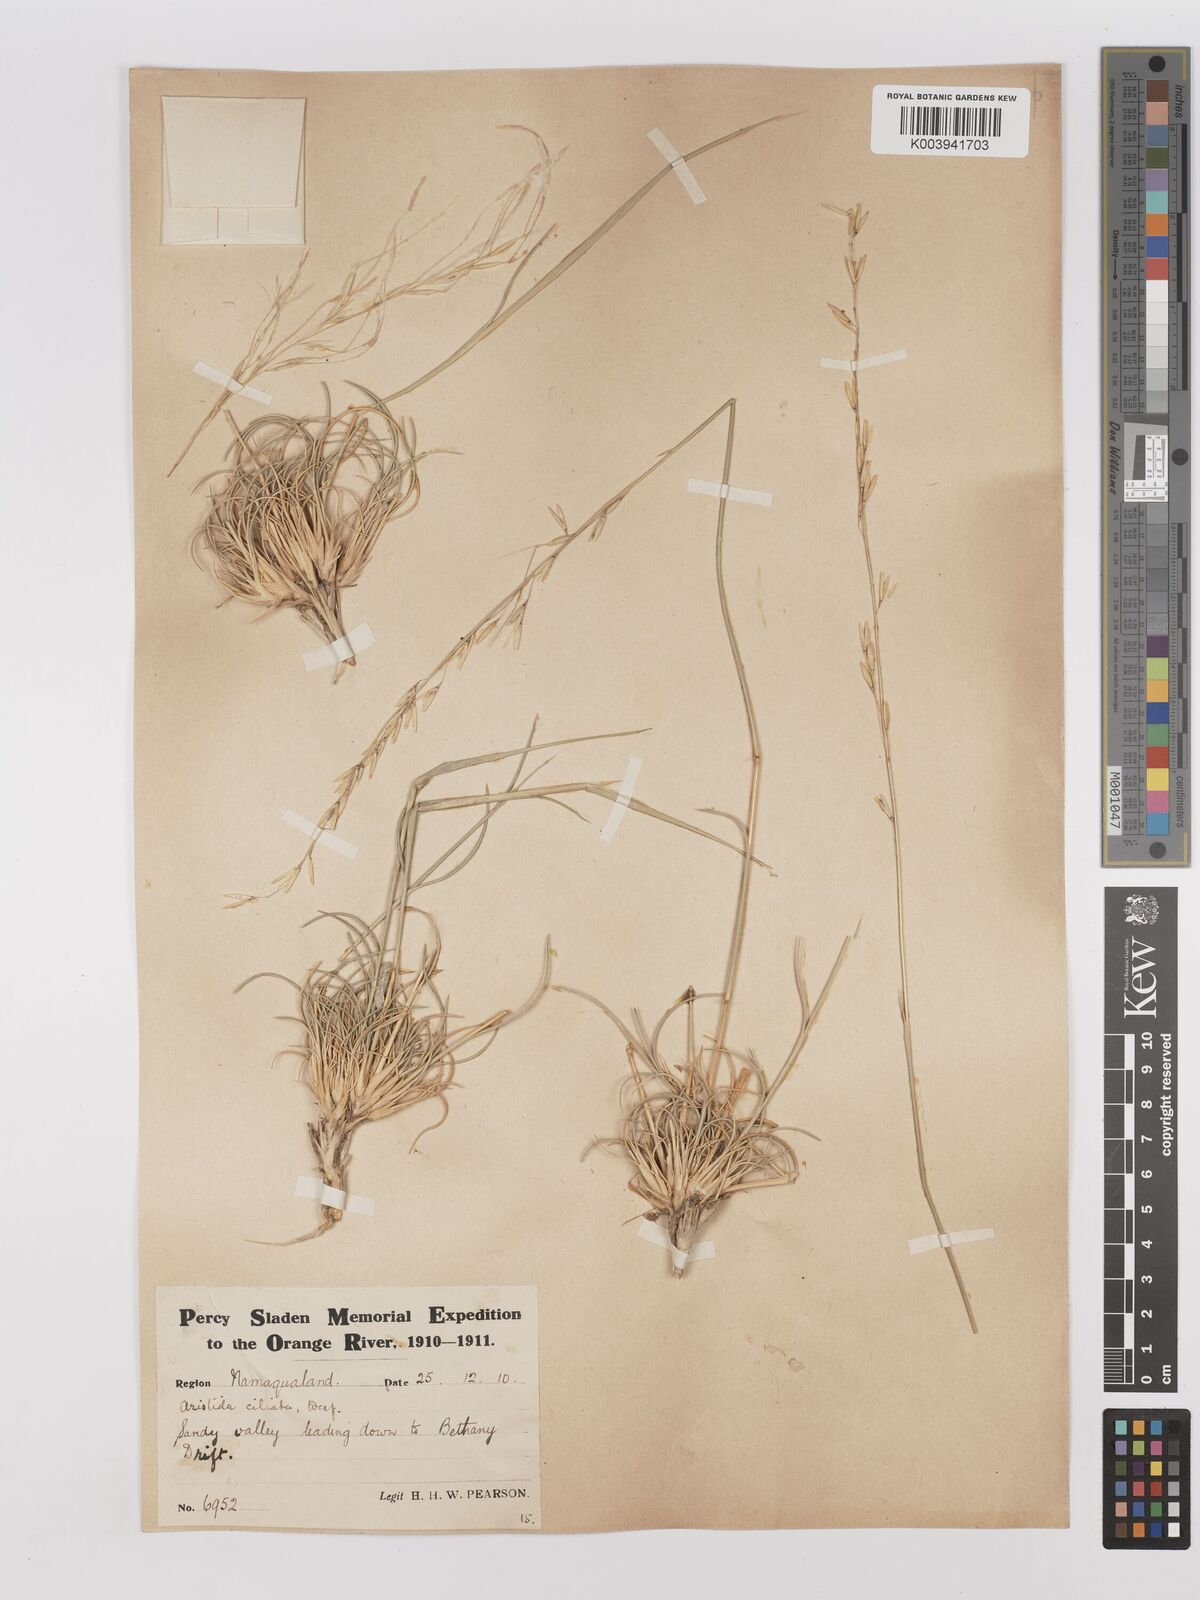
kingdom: Plantae
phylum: Tracheophyta
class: Liliopsida
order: Poales
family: Poaceae
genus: Stipagrostis
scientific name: Stipagrostis ciliata
